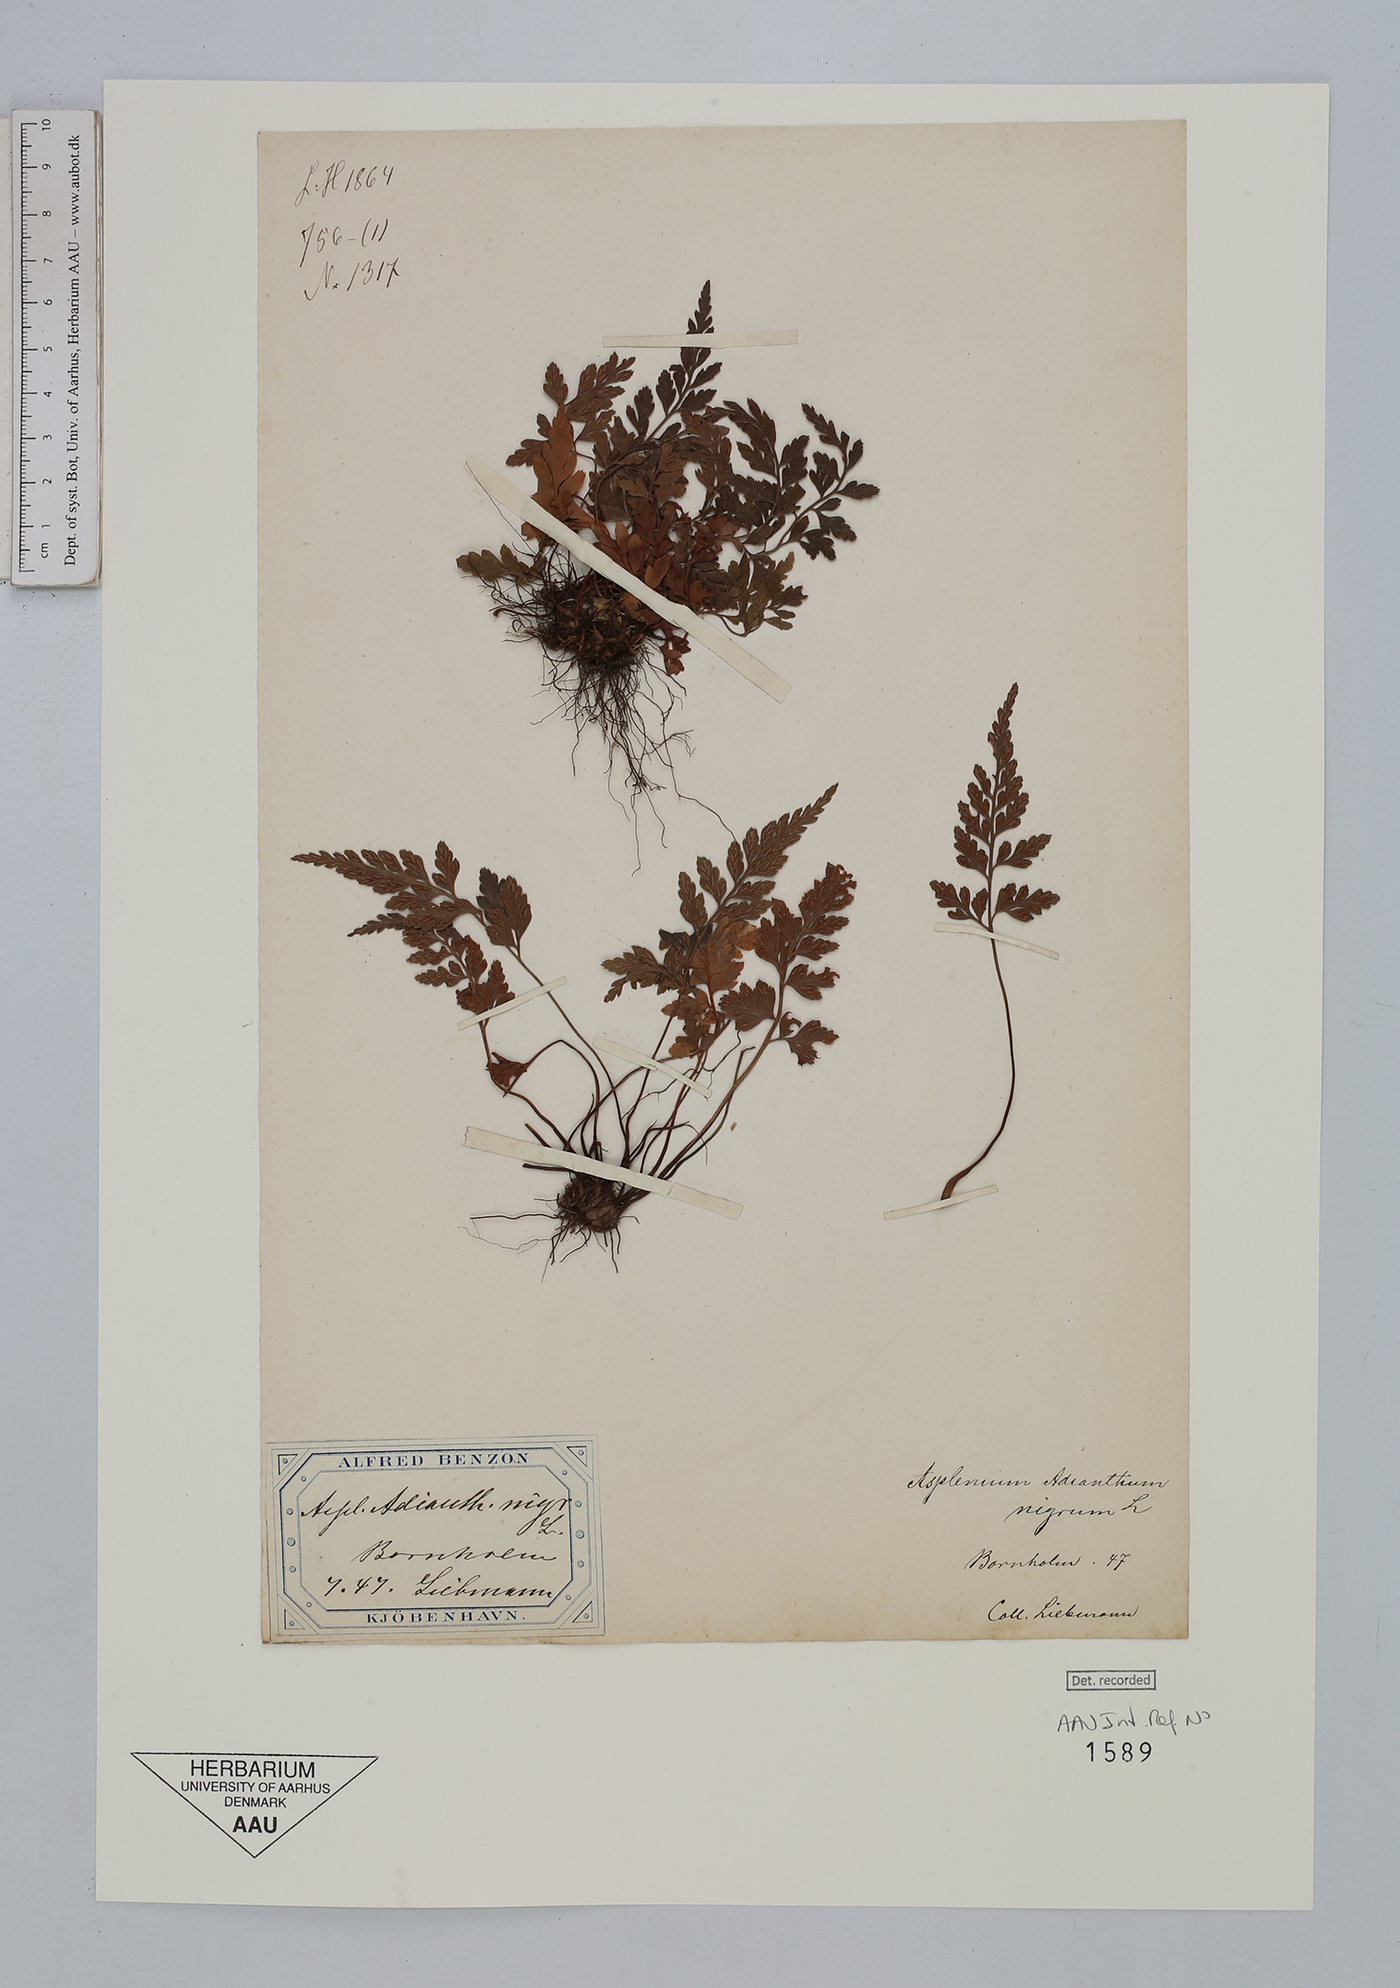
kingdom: Plantae
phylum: Tracheophyta
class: Polypodiopsida
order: Polypodiales
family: Aspleniaceae
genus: Asplenium
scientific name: Asplenium adiantum-nigrum
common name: Black spleenwort
